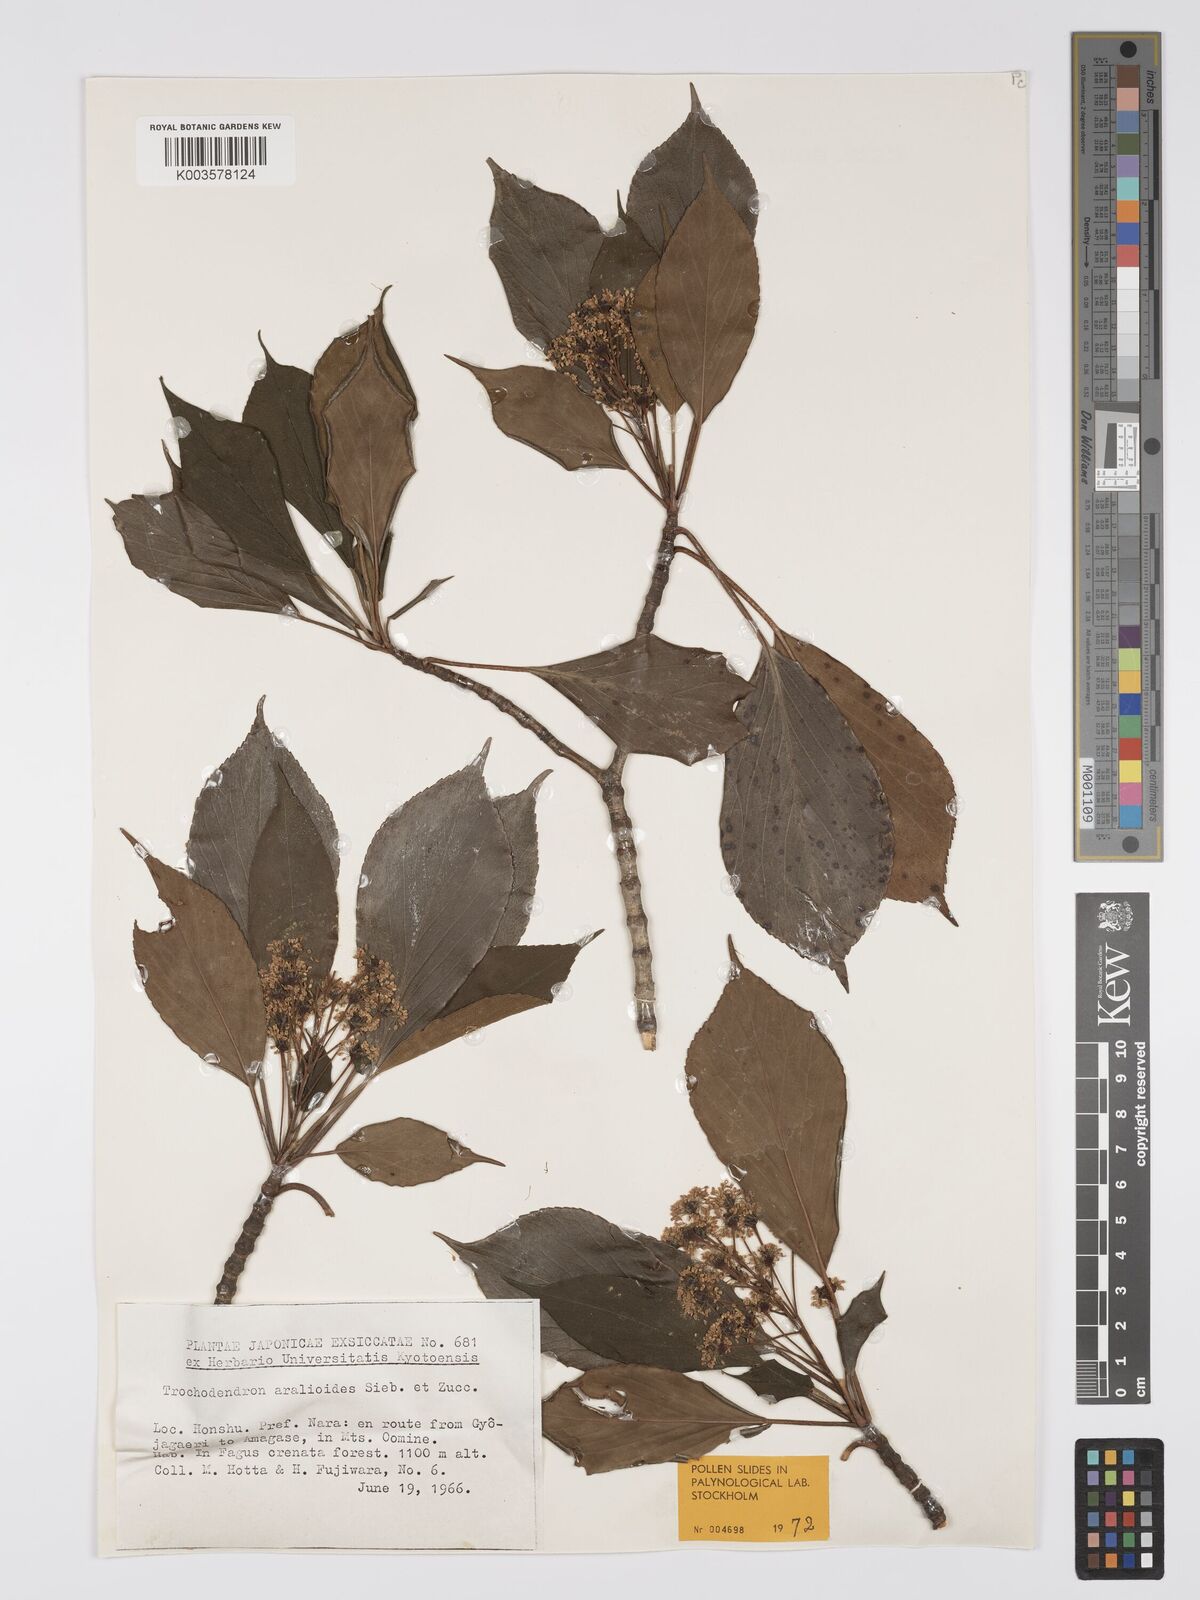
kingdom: Plantae
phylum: Tracheophyta
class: Magnoliopsida
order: Trochodendrales
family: Trochodendraceae
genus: Trochodendron
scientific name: Trochodendron aralioides
